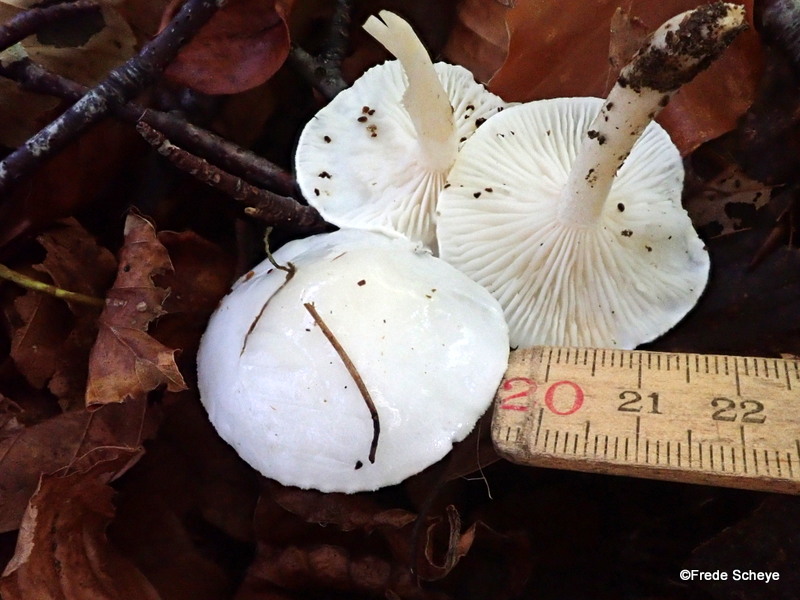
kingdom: Fungi
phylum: Basidiomycota
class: Agaricomycetes
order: Agaricales
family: Hygrophoraceae
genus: Hygrophorus
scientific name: Hygrophorus eburneus
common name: elfenbens-sneglehat
